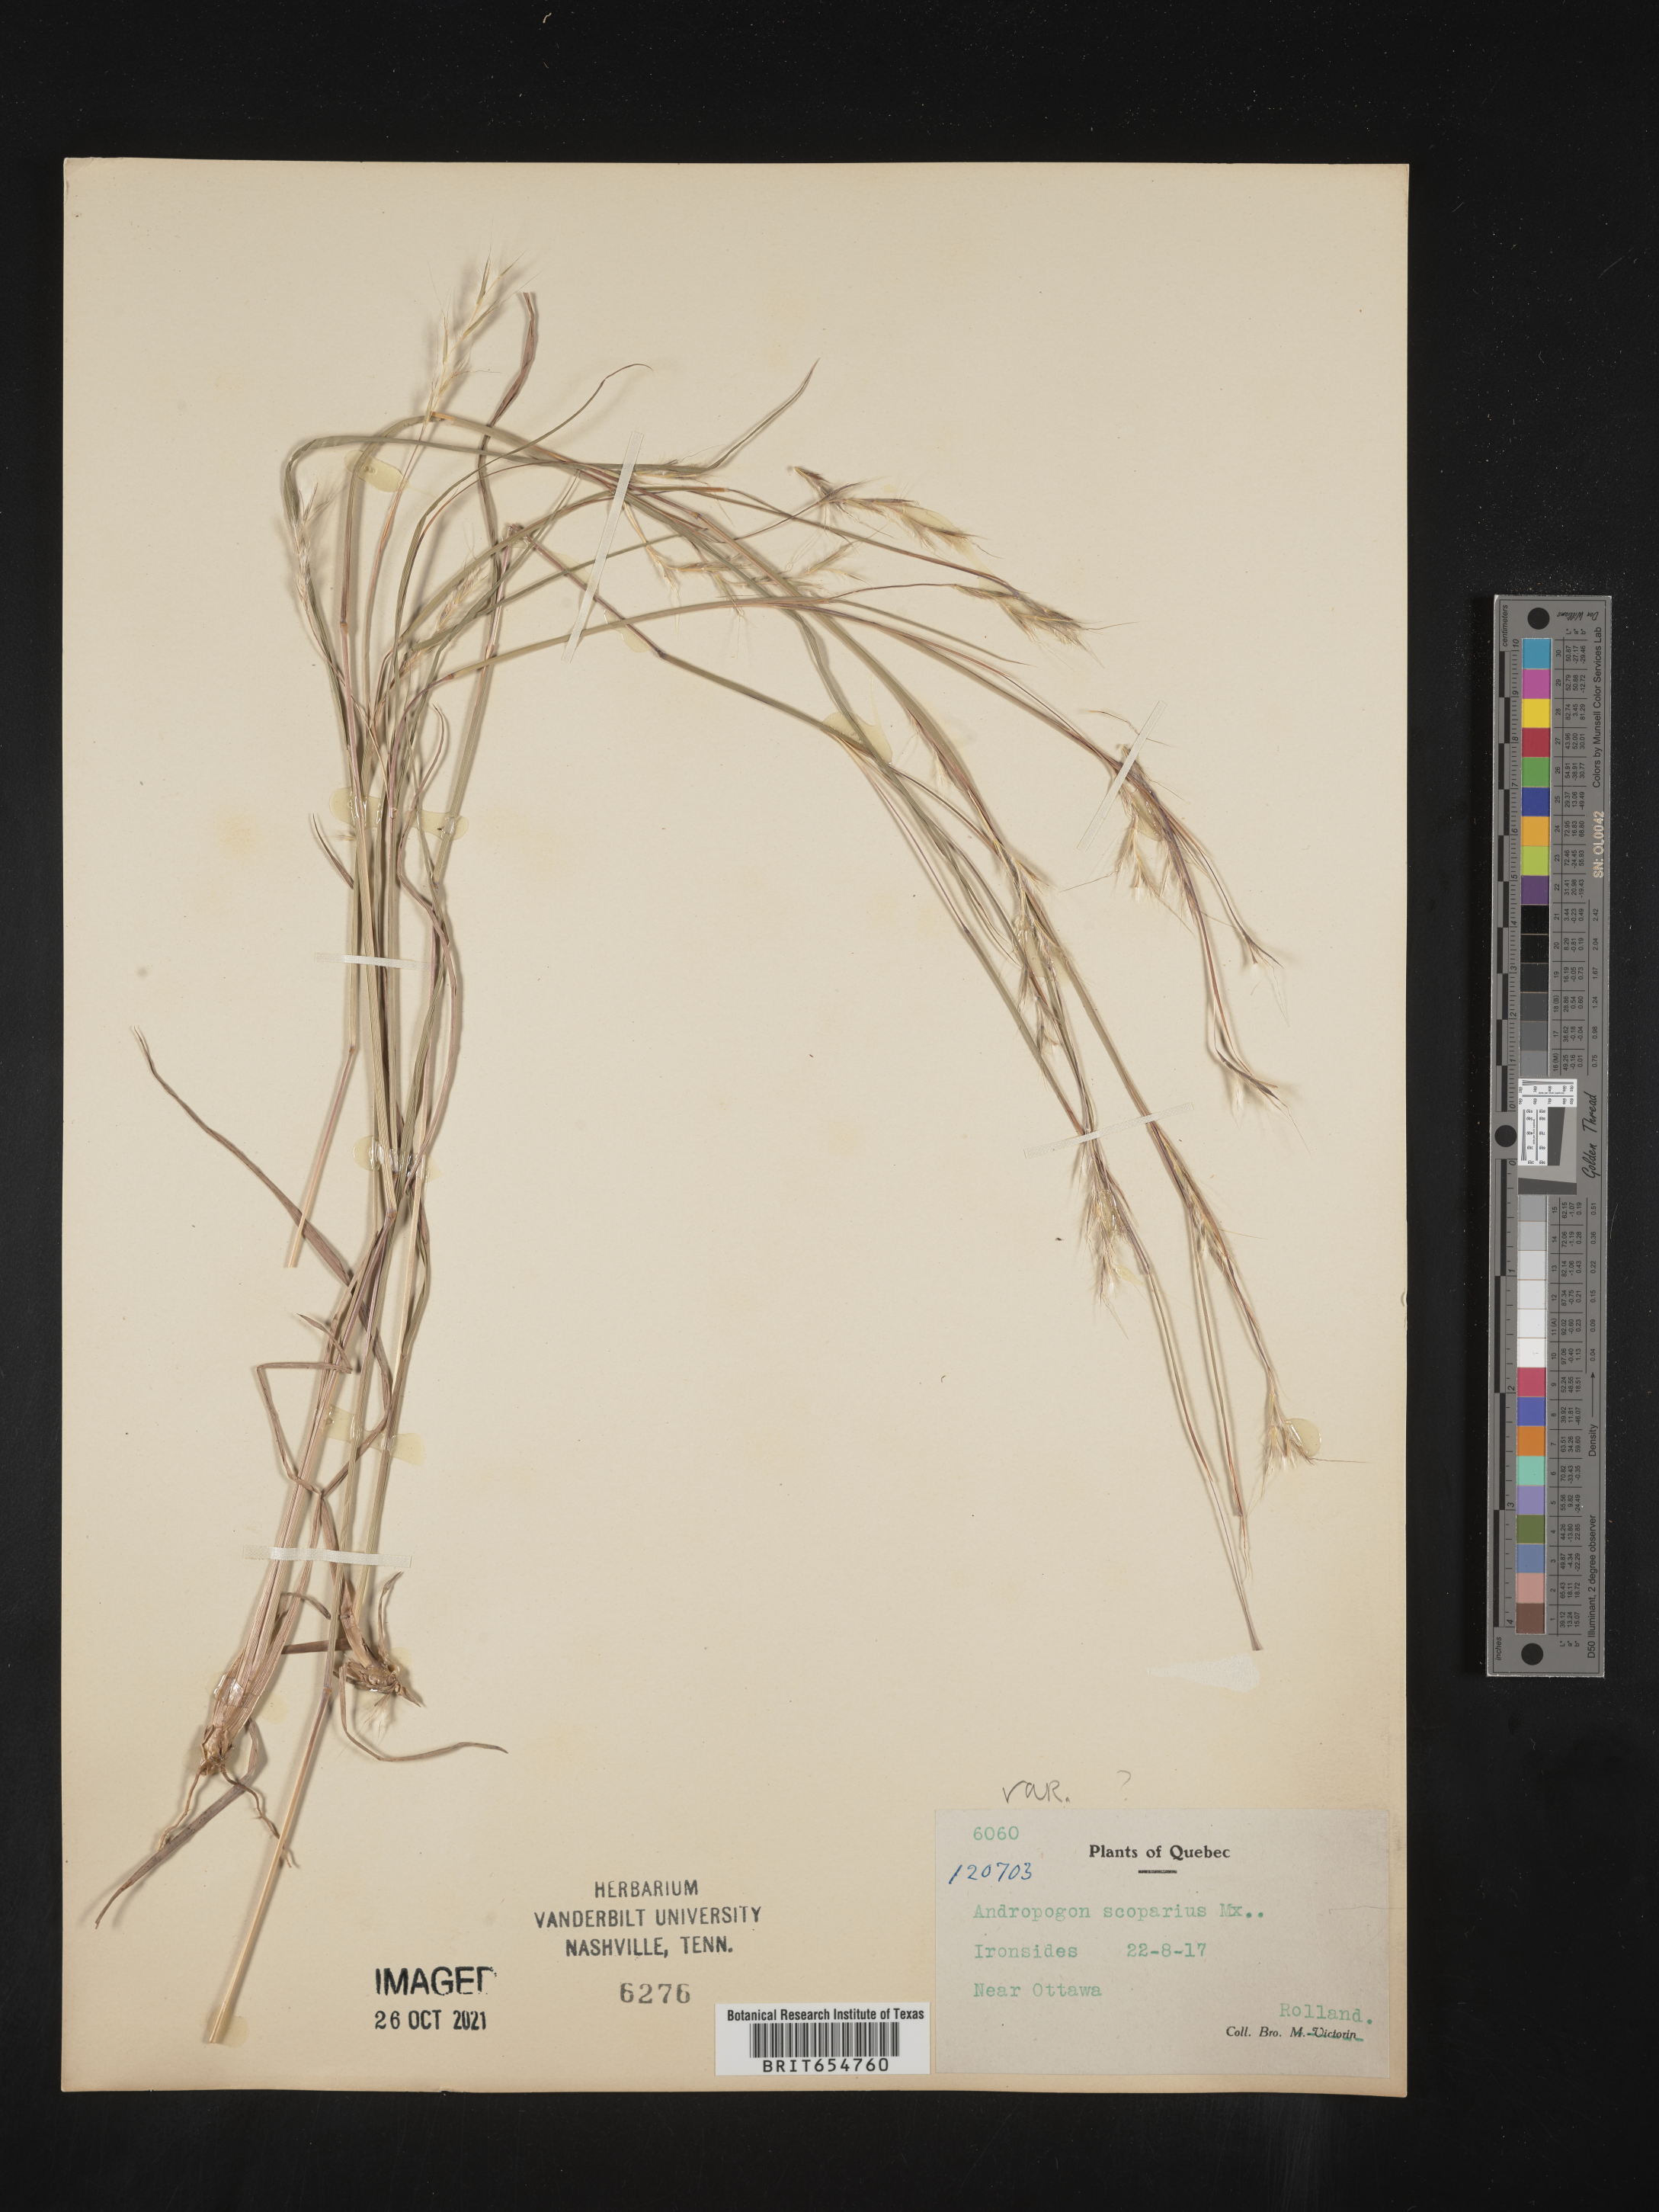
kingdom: Plantae
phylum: Tracheophyta
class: Liliopsida
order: Poales
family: Poaceae
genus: Andropogon
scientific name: Andropogon
